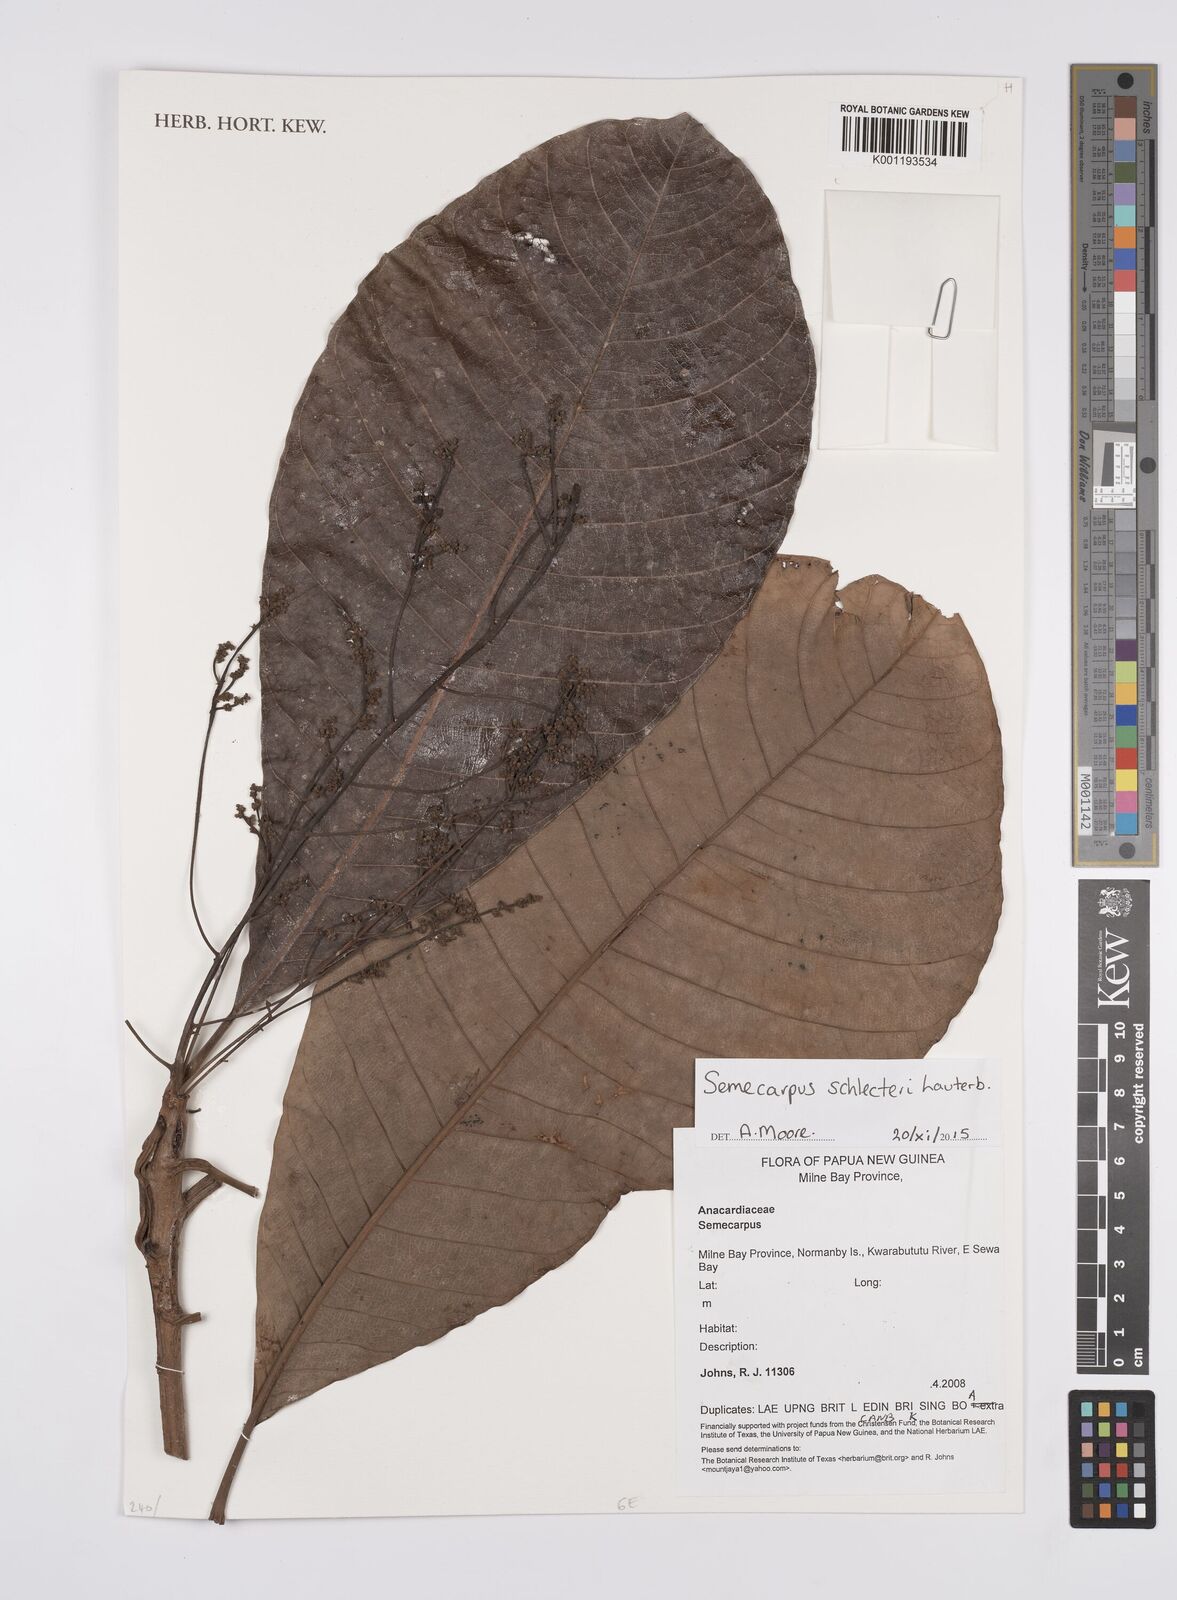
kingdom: Plantae
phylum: Tracheophyta
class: Magnoliopsida
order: Sapindales
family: Anacardiaceae
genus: Semecarpus
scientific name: Semecarpus
